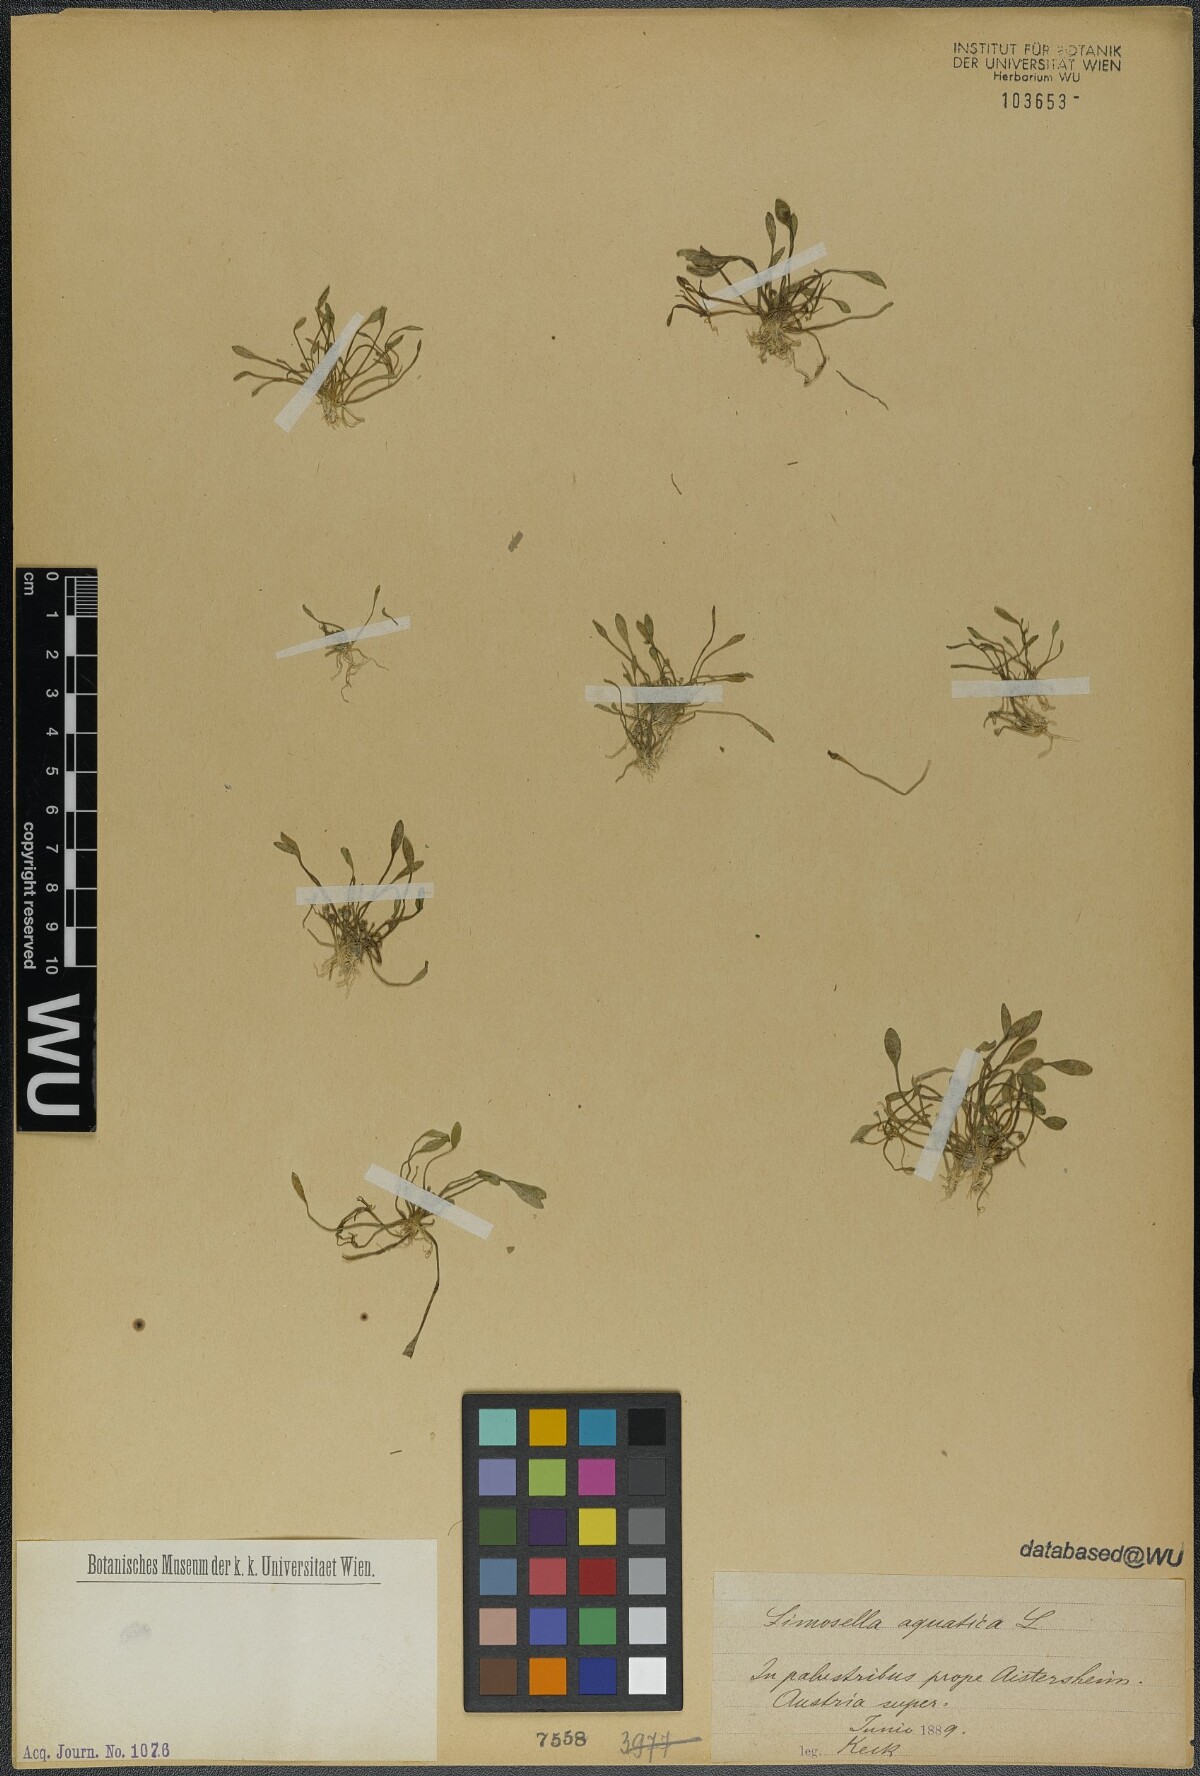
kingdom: Plantae
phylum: Tracheophyta
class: Magnoliopsida
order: Lamiales
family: Scrophulariaceae
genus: Limosella
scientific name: Limosella aquatica
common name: Mudwort
